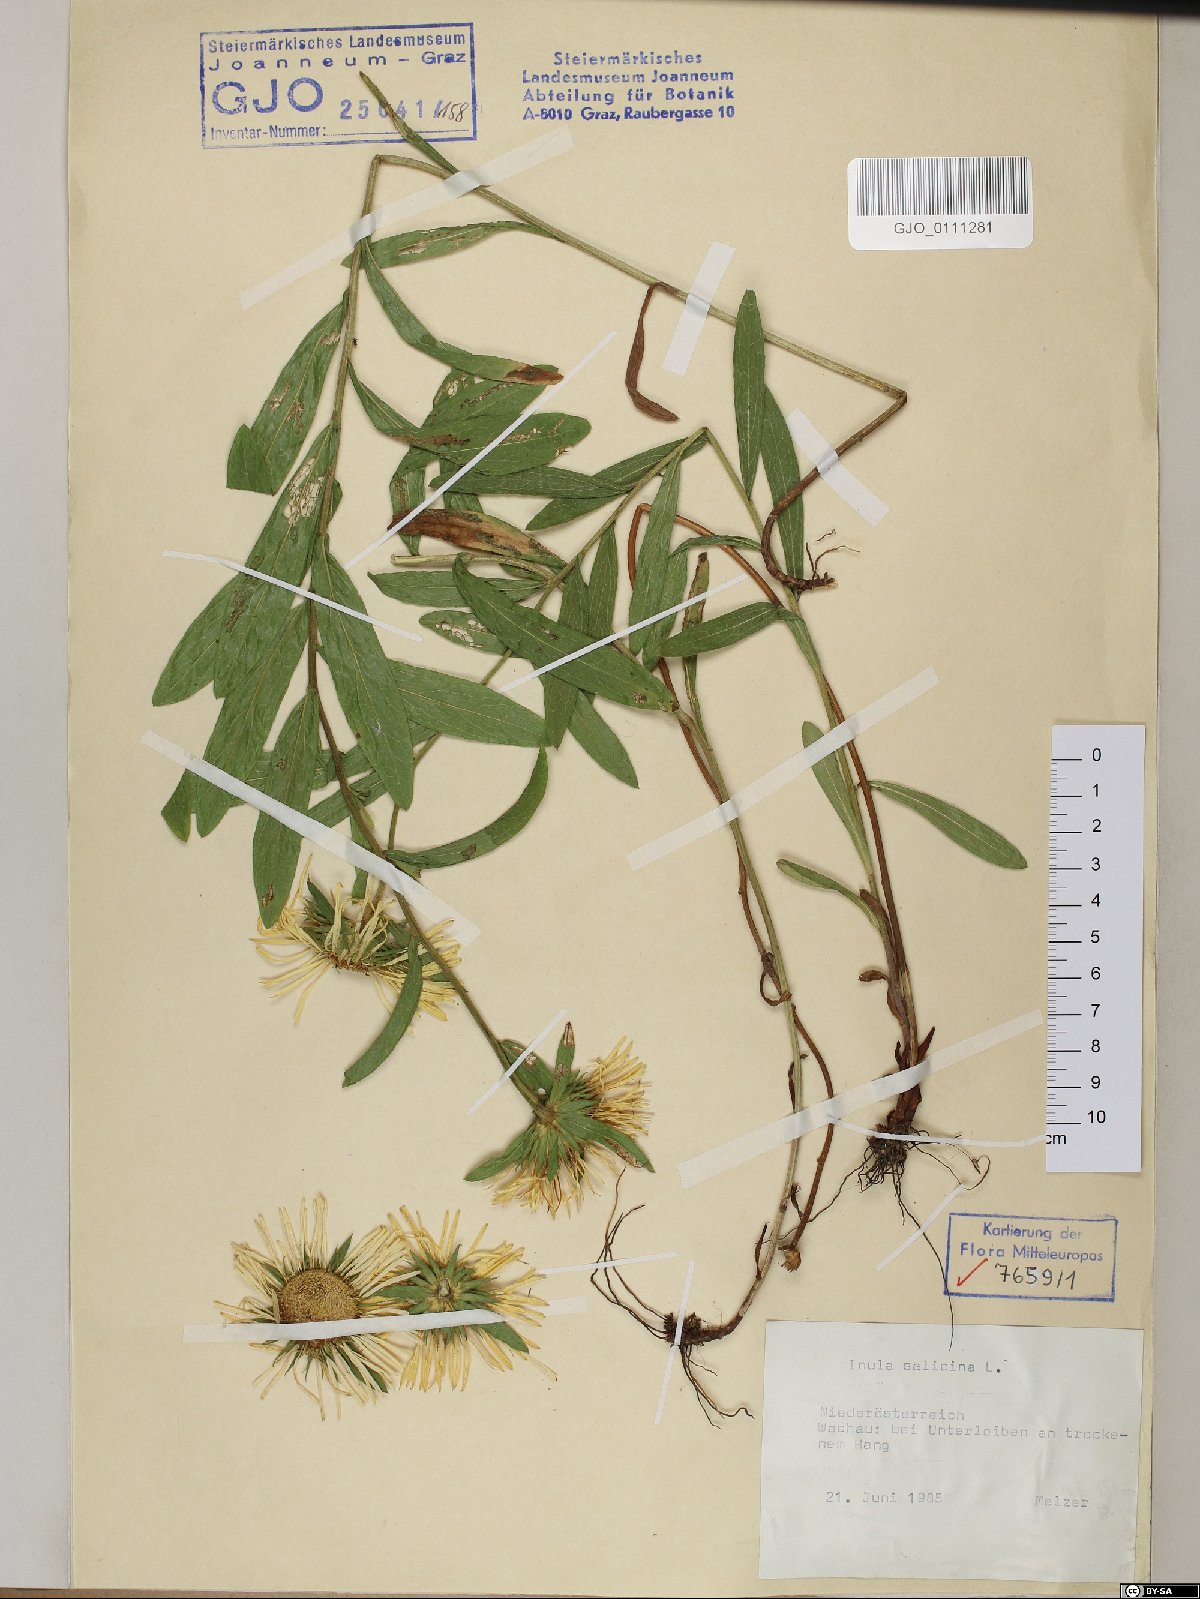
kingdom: Plantae
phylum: Tracheophyta
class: Magnoliopsida
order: Asterales
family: Asteraceae
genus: Pentanema
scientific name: Pentanema salicinum
